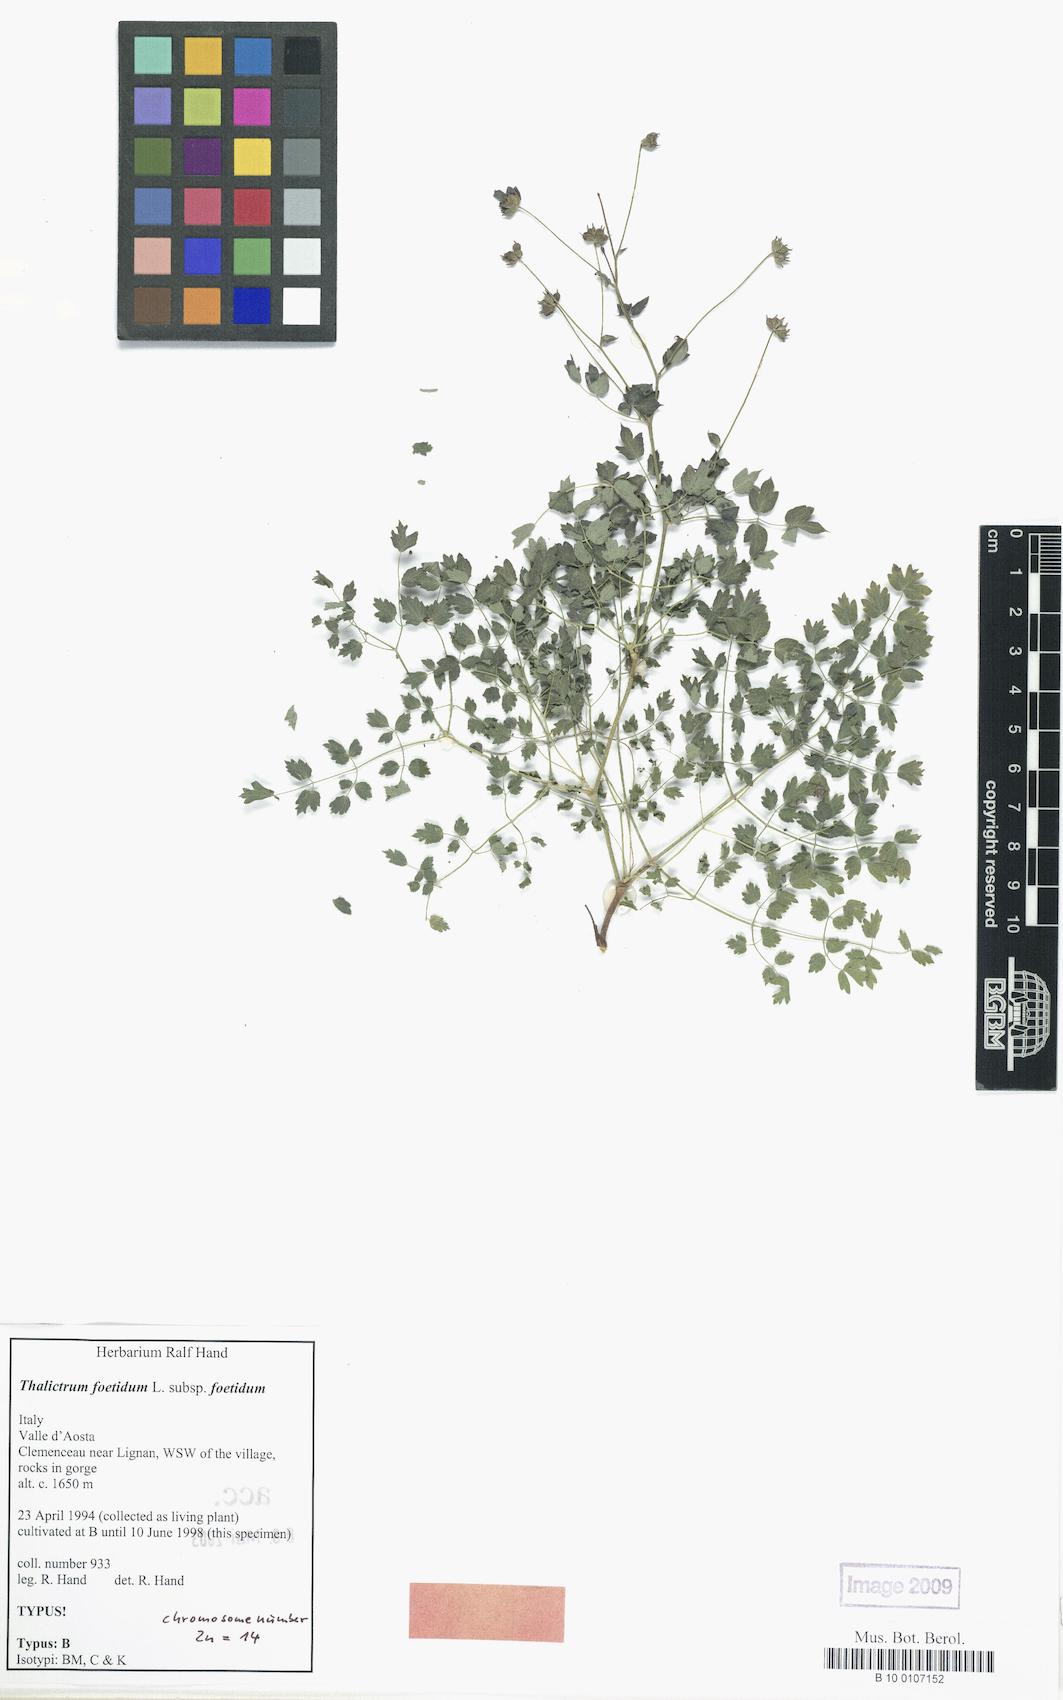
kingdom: Plantae
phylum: Tracheophyta
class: Magnoliopsida
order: Ranunculales
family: Ranunculaceae
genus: Thalictrum
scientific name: Thalictrum foetidum
